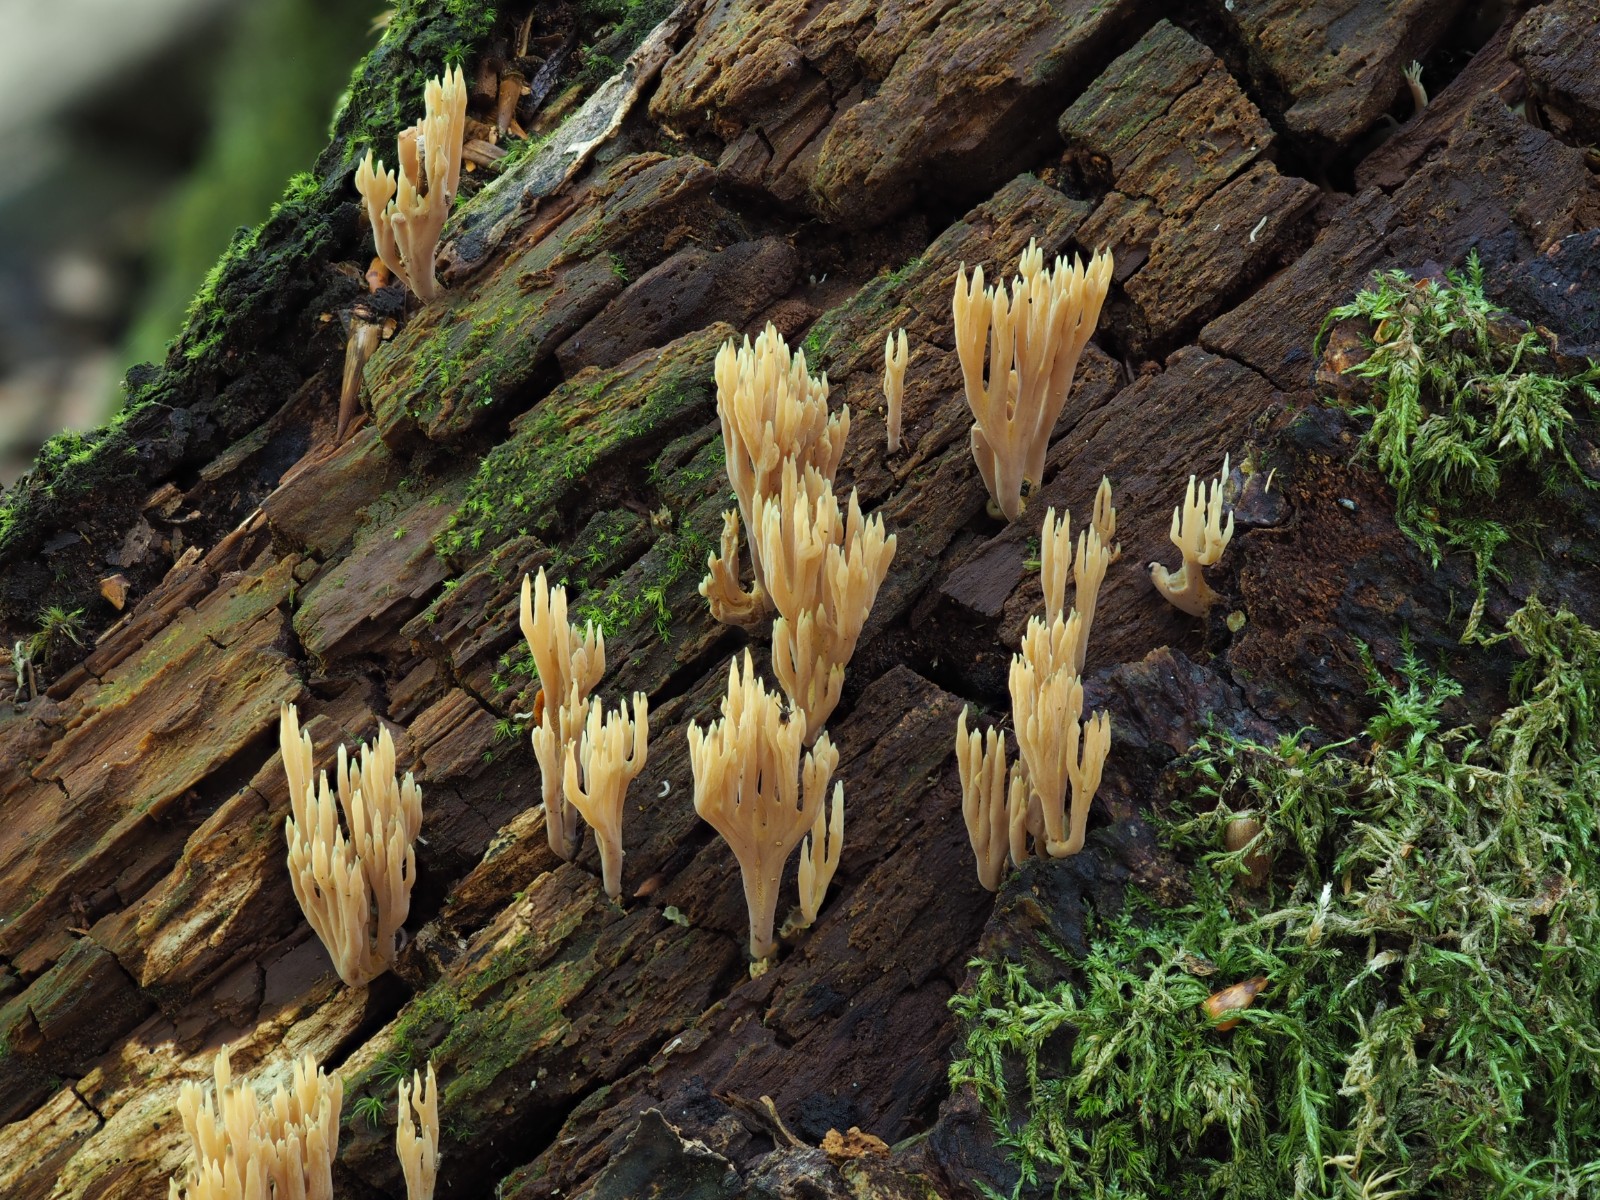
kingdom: Fungi
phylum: Basidiomycota
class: Agaricomycetes
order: Gomphales
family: Gomphaceae
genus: Ramaria
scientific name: Ramaria apiculata
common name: grøntoppet koralsvamp
